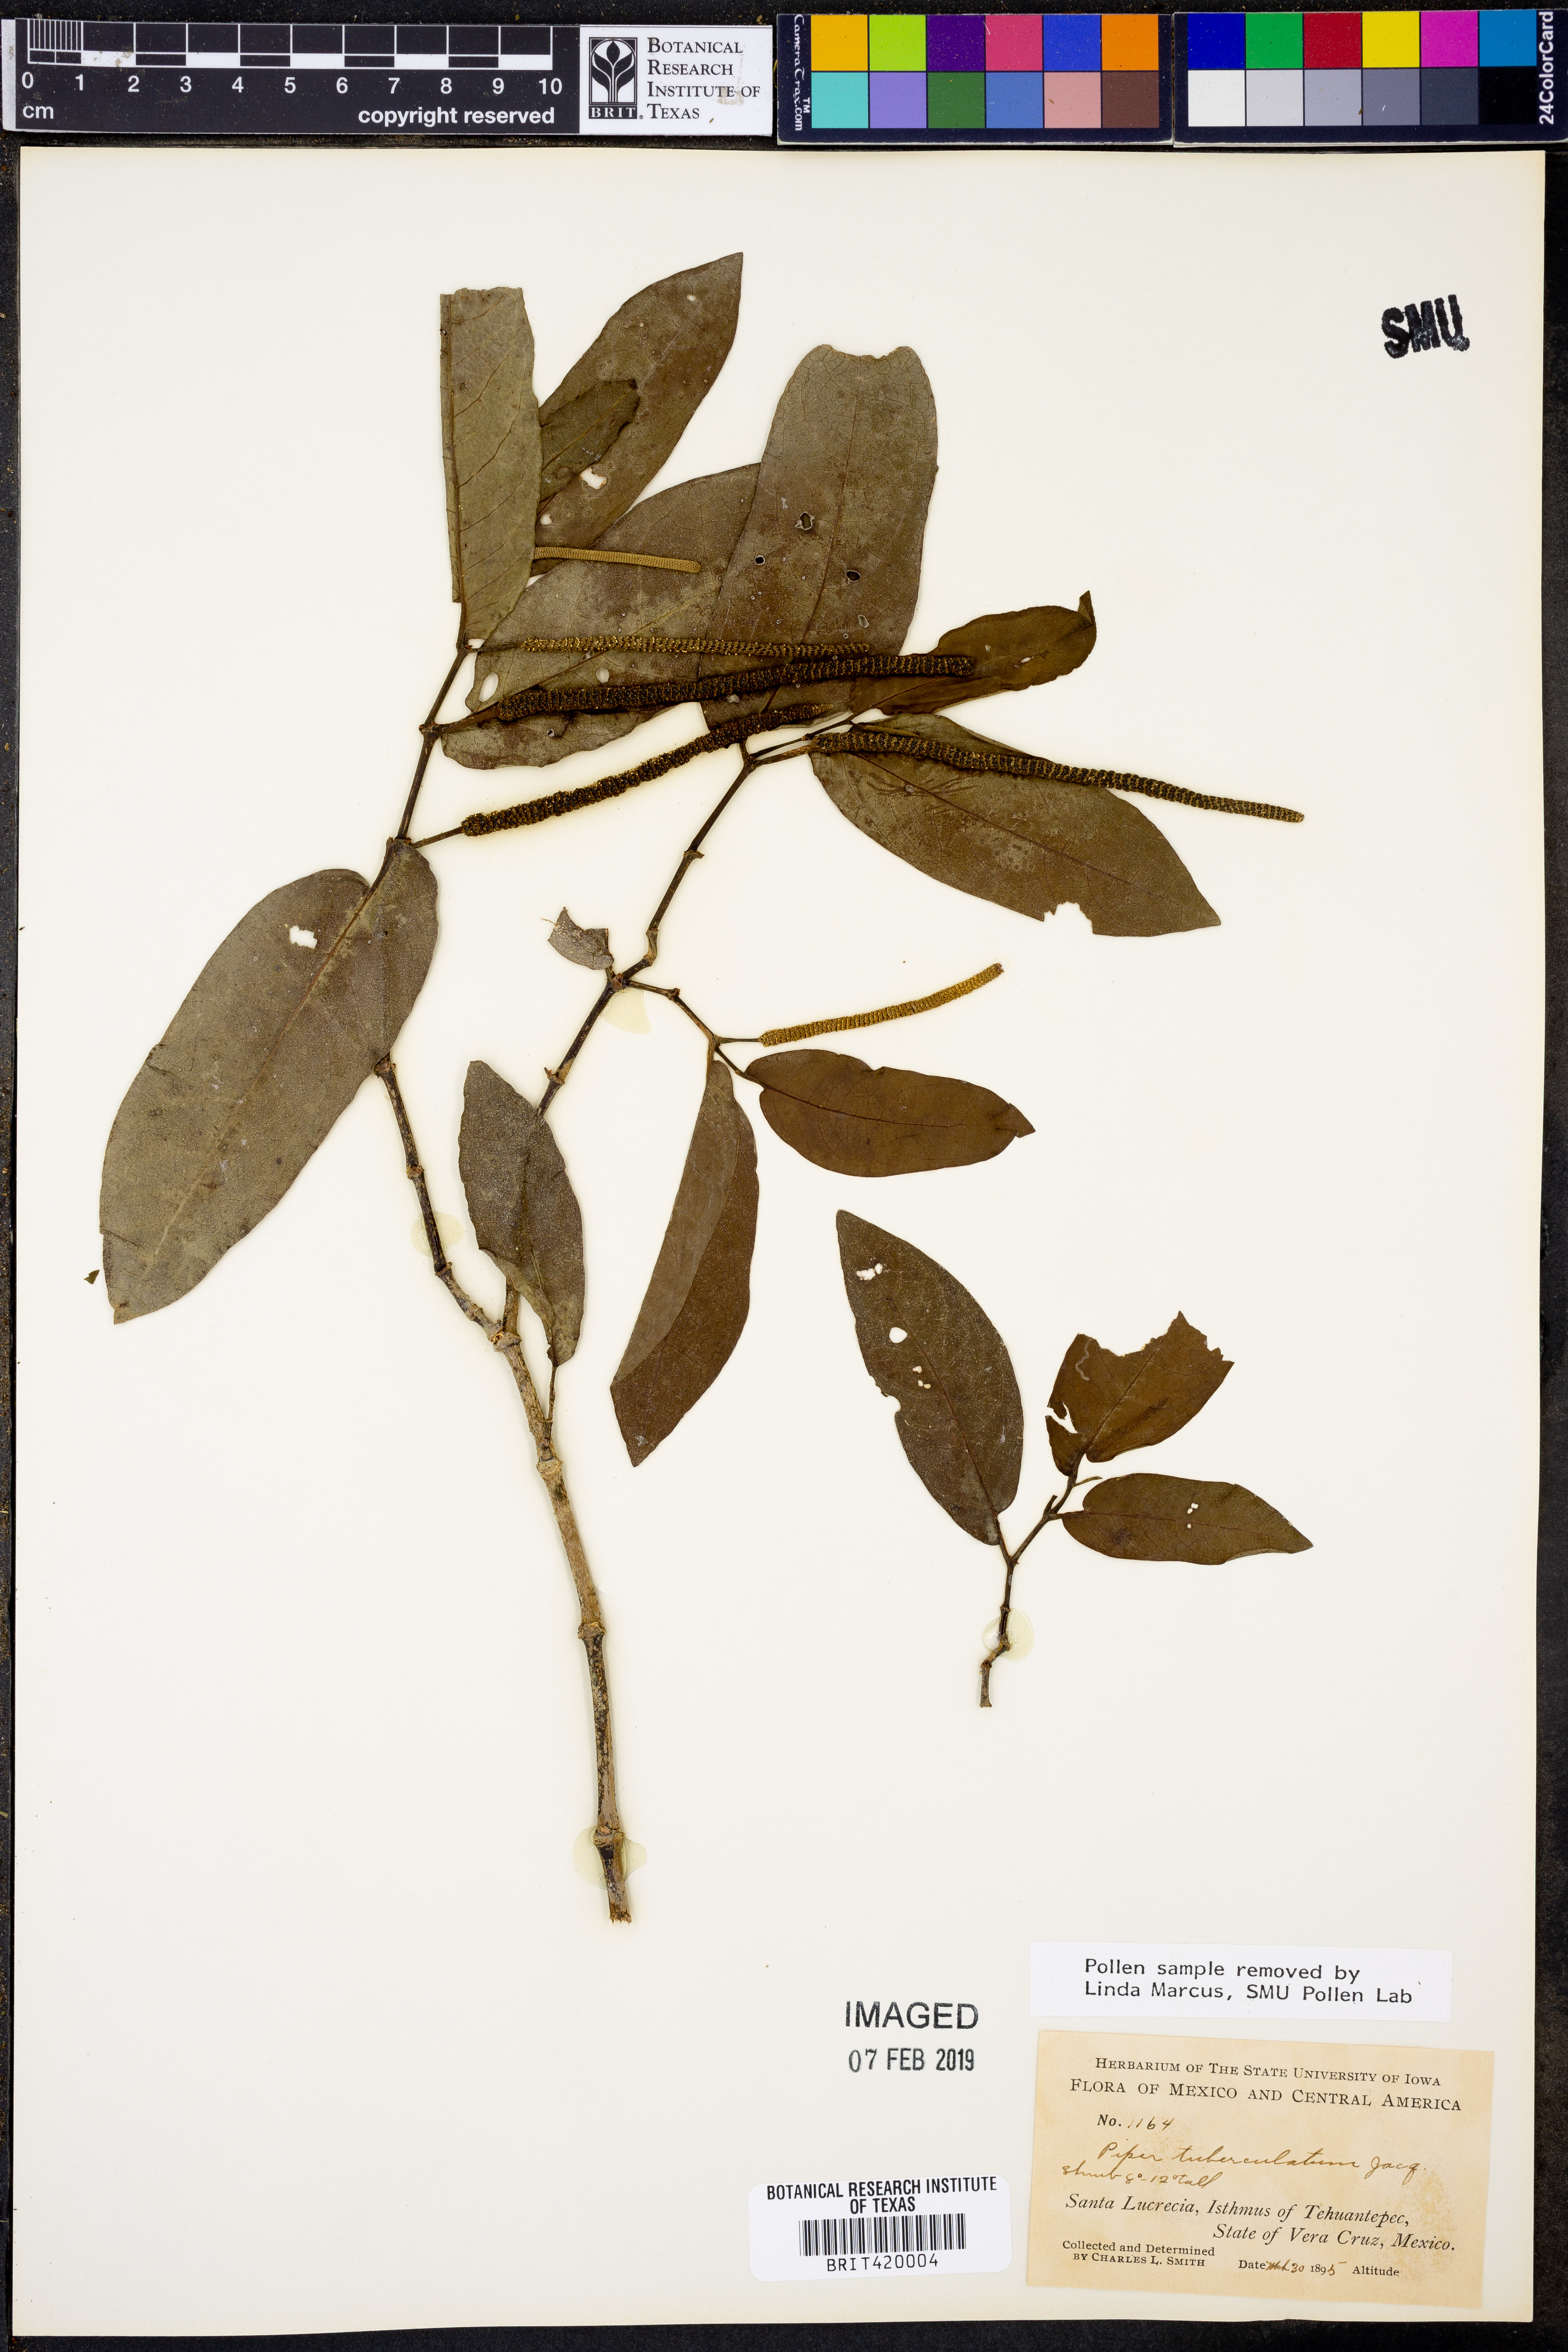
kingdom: Plantae
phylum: Tracheophyta
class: Magnoliopsida
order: Piperales
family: Piperaceae
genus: Piper
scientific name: Piper tuberculatum
